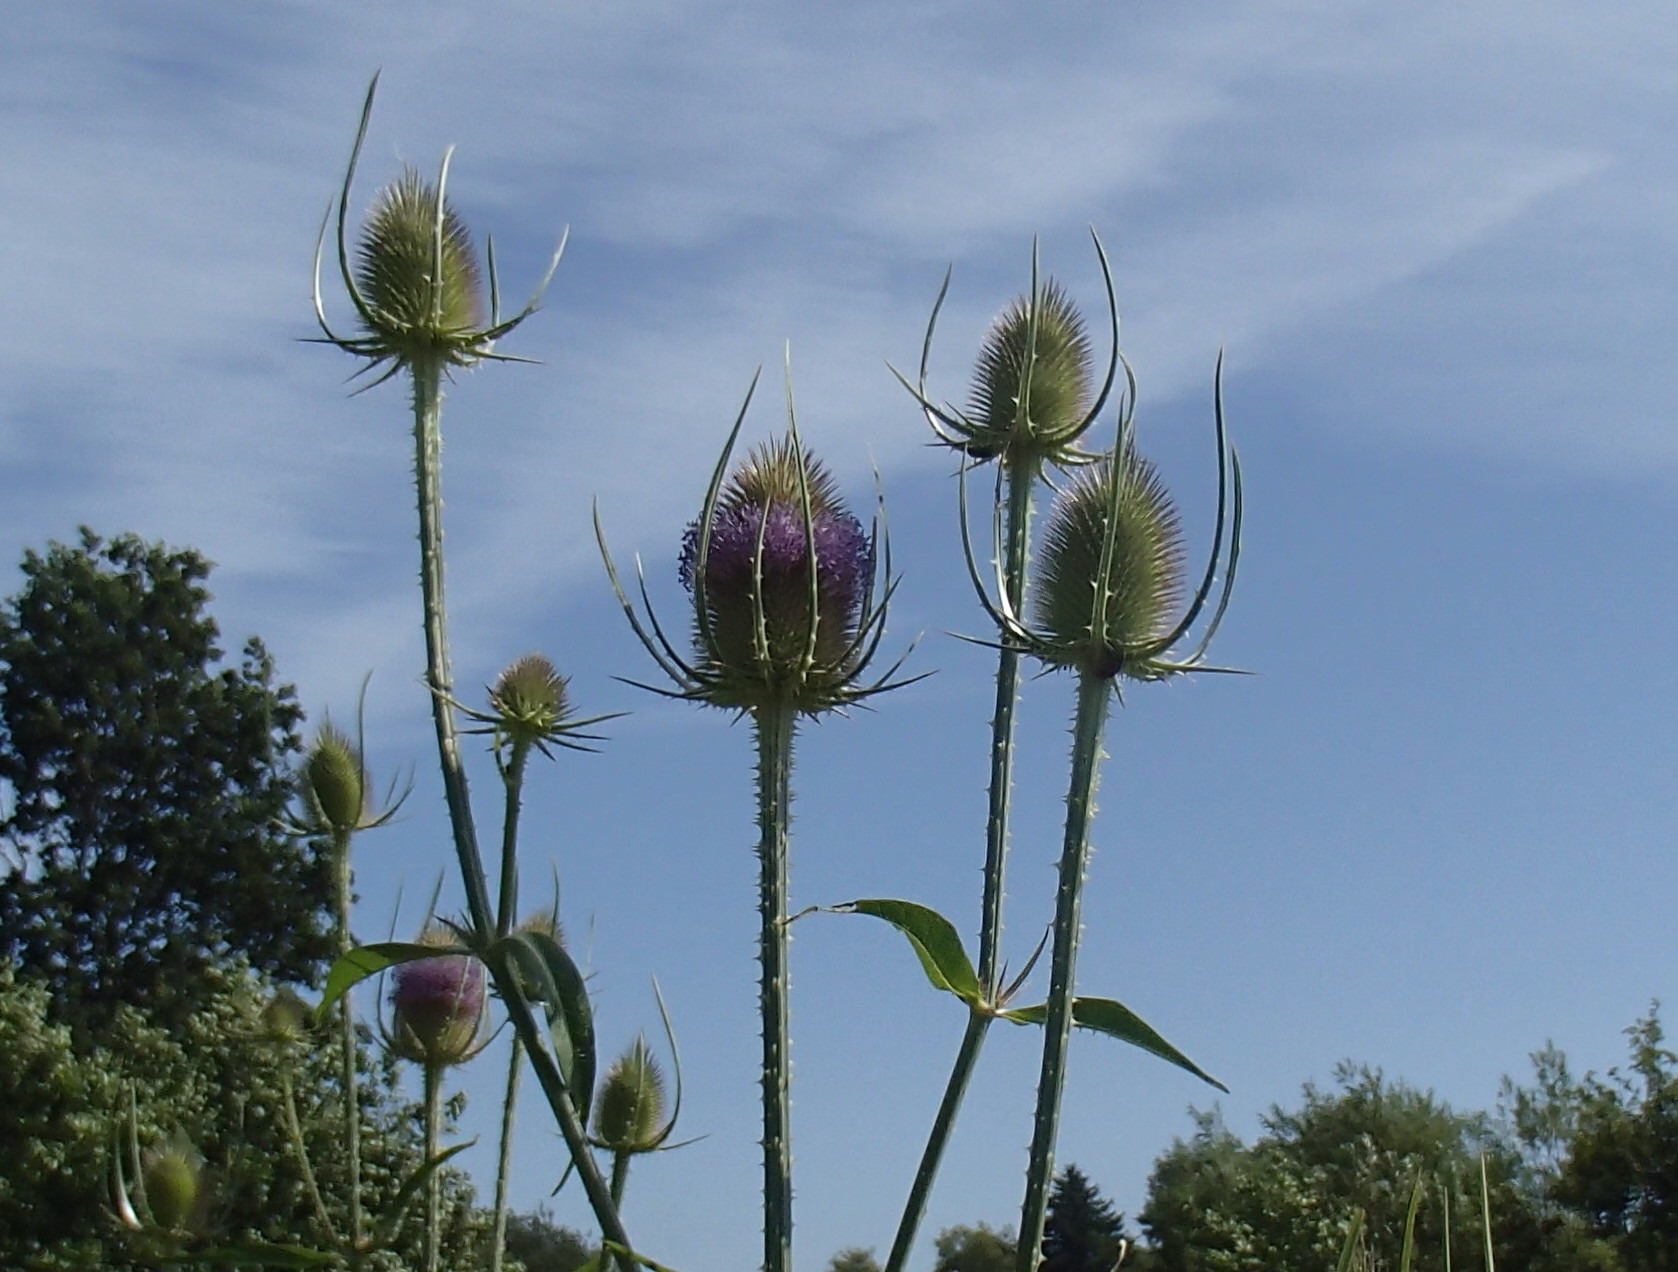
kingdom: Plantae
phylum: Tracheophyta
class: Magnoliopsida
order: Dipsacales
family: Caprifoliaceae
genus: Dipsacus
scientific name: Dipsacus fullonum
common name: Gærde-kartebolle
